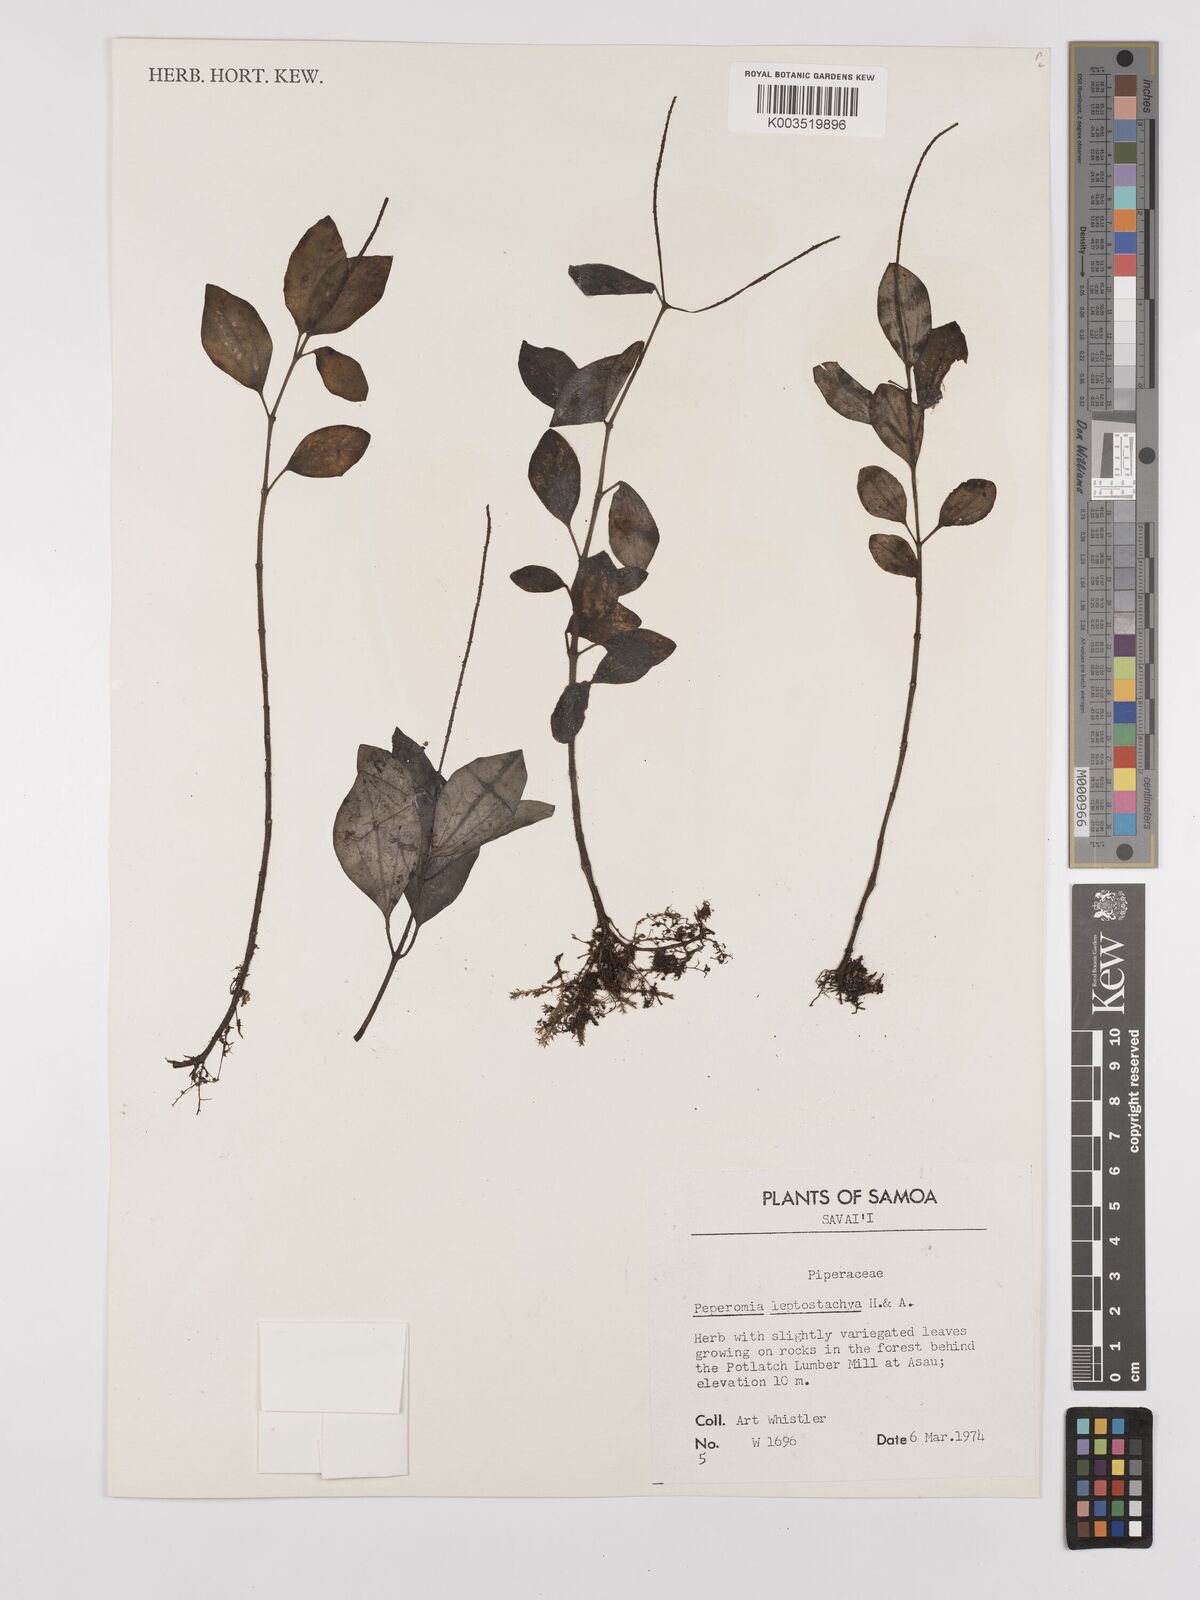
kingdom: Plantae
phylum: Tracheophyta
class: Magnoliopsida
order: Piperales
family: Piperaceae
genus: Peperomia
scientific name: Peperomia leptostachya
